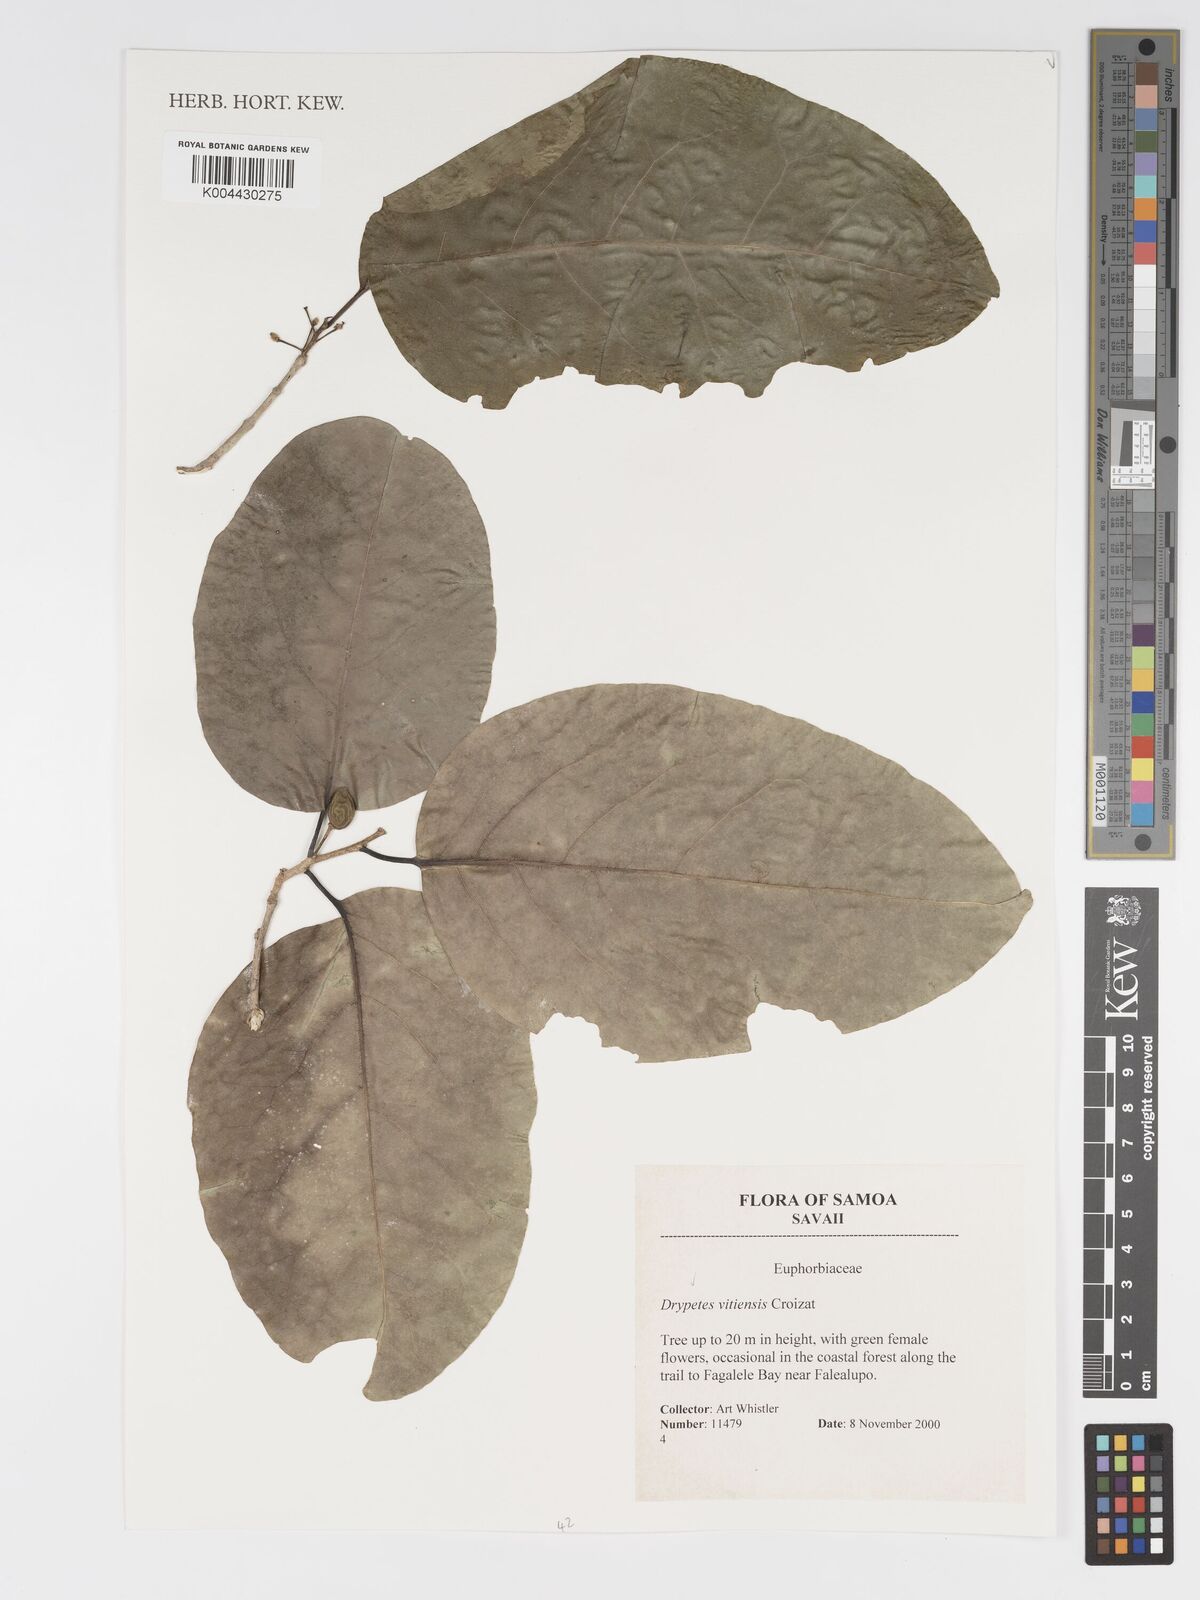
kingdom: Plantae
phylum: Tracheophyta
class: Magnoliopsida
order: Malpighiales
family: Putranjivaceae
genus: Drypetes
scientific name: Drypetes vitiensis
